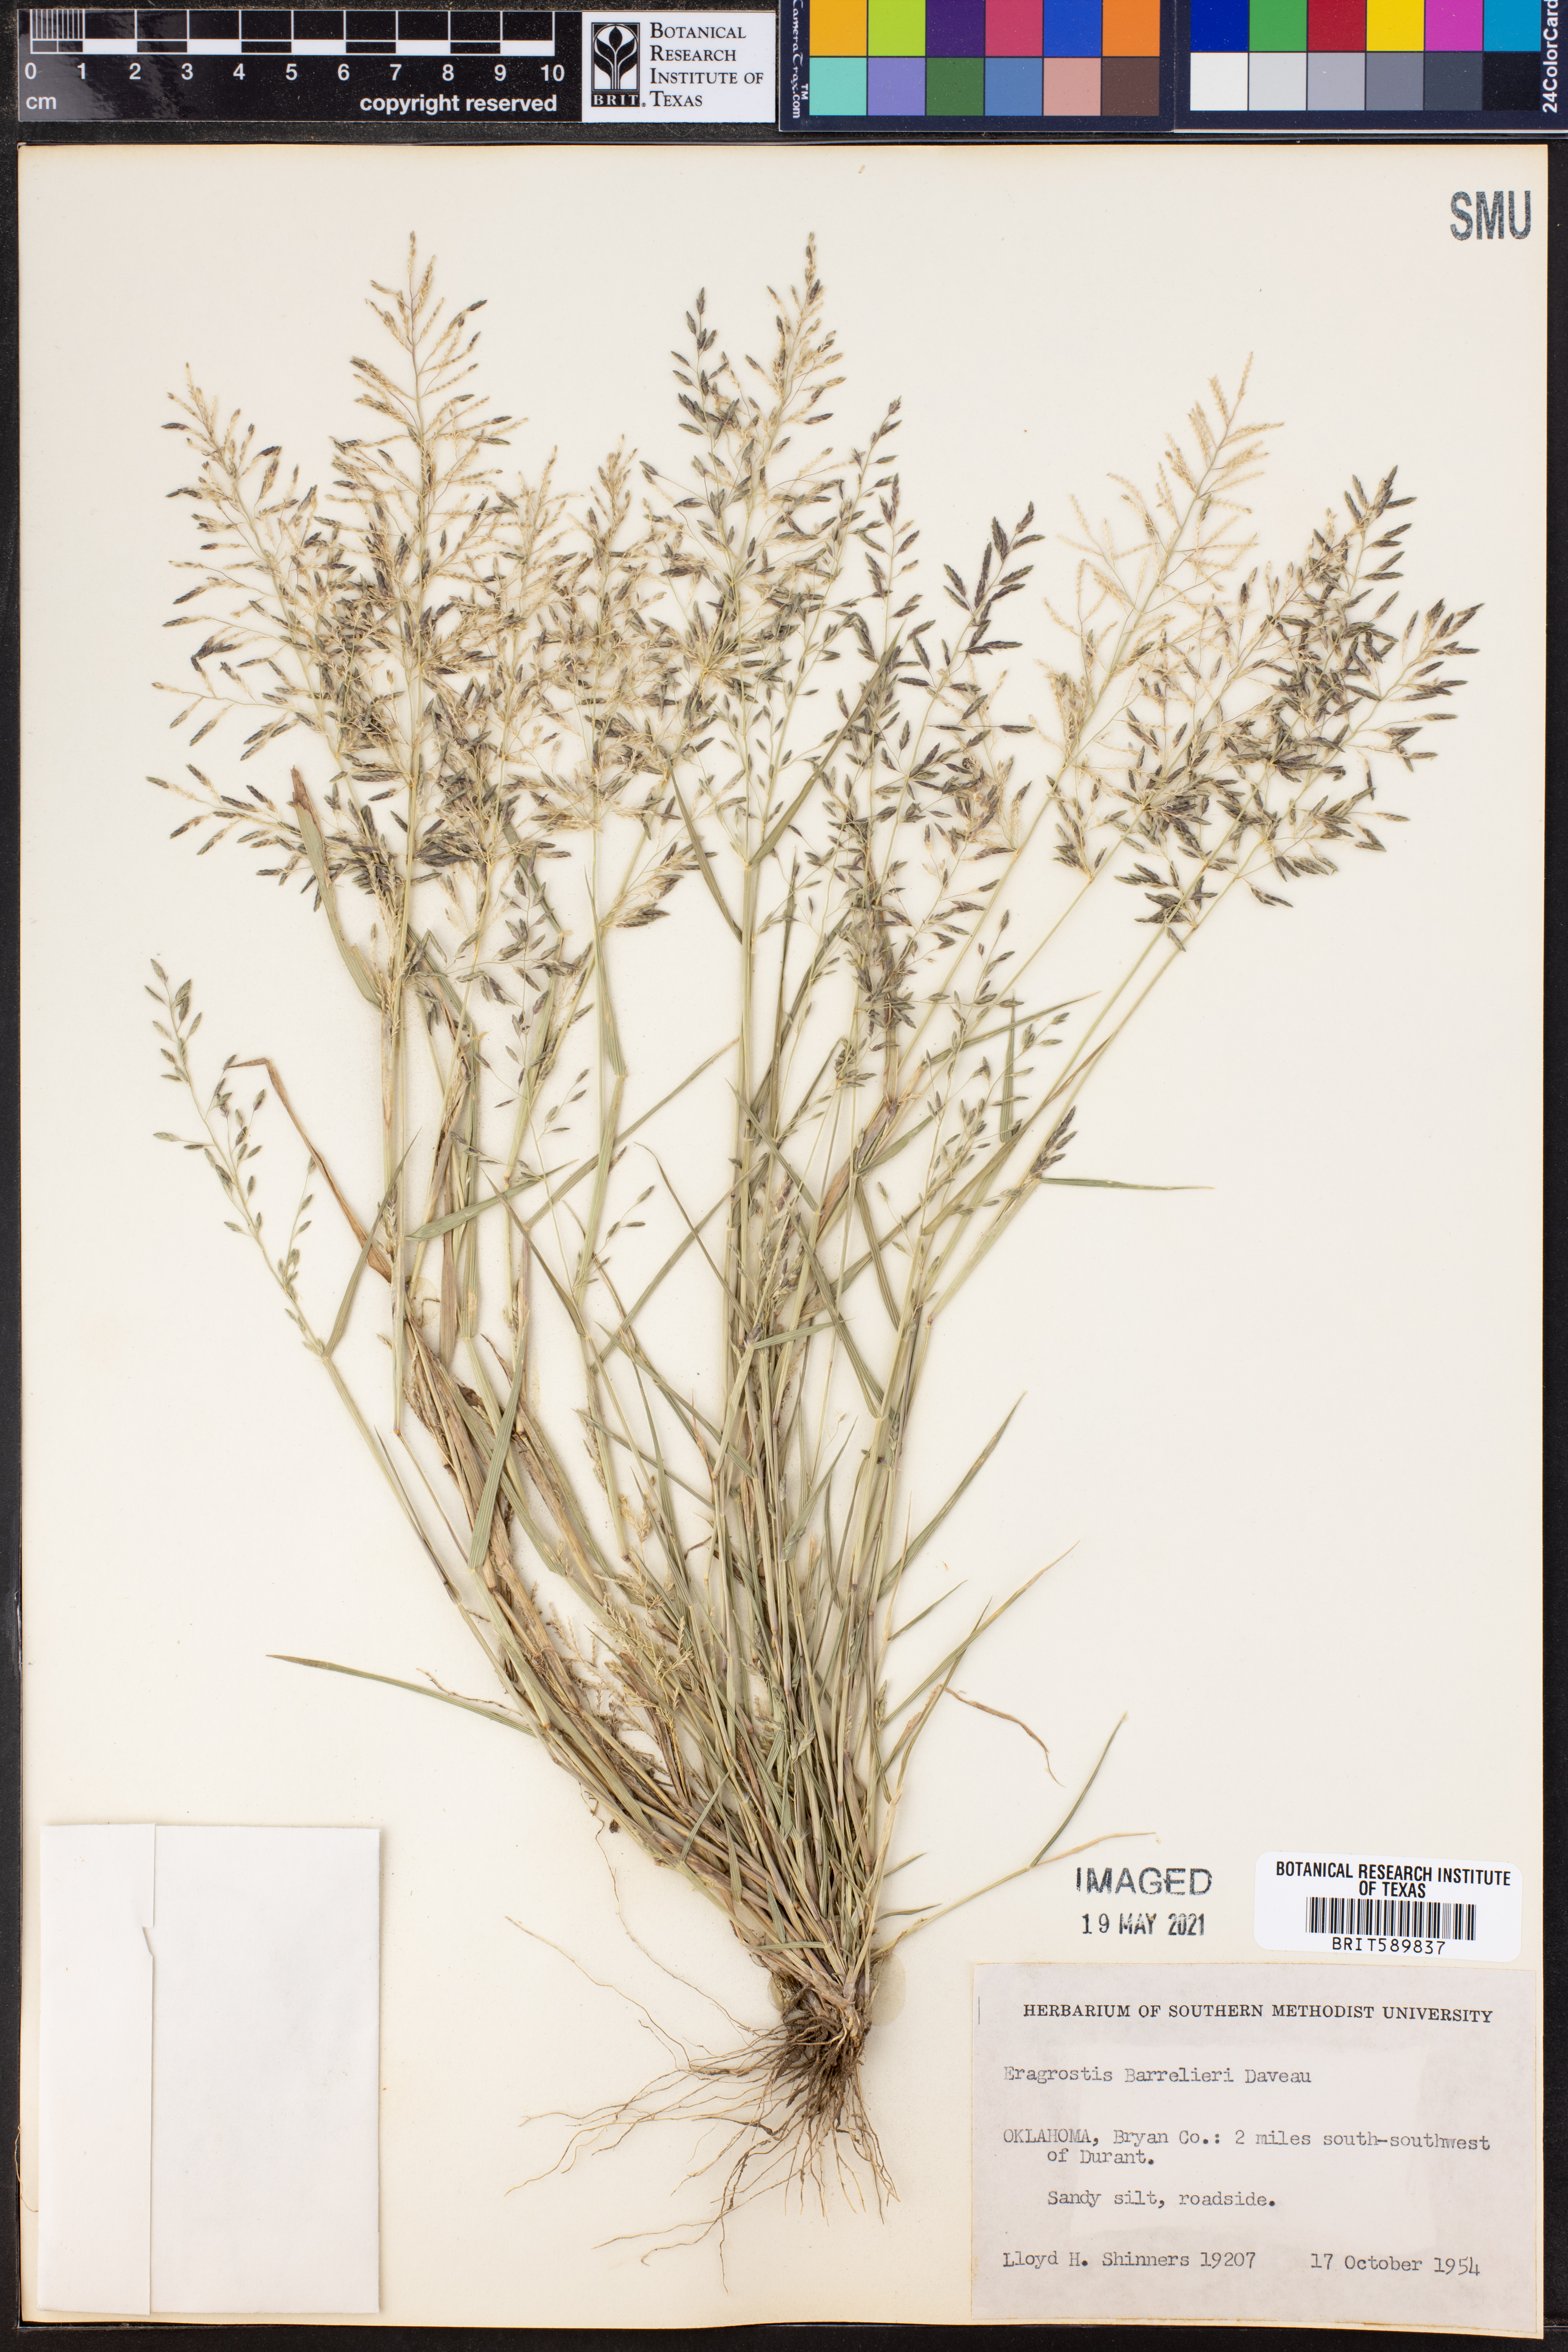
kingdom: Plantae
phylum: Tracheophyta
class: Liliopsida
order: Poales
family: Poaceae
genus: Eragrostis
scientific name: Eragrostis barrelieri
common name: Mediterranean lovegrass
